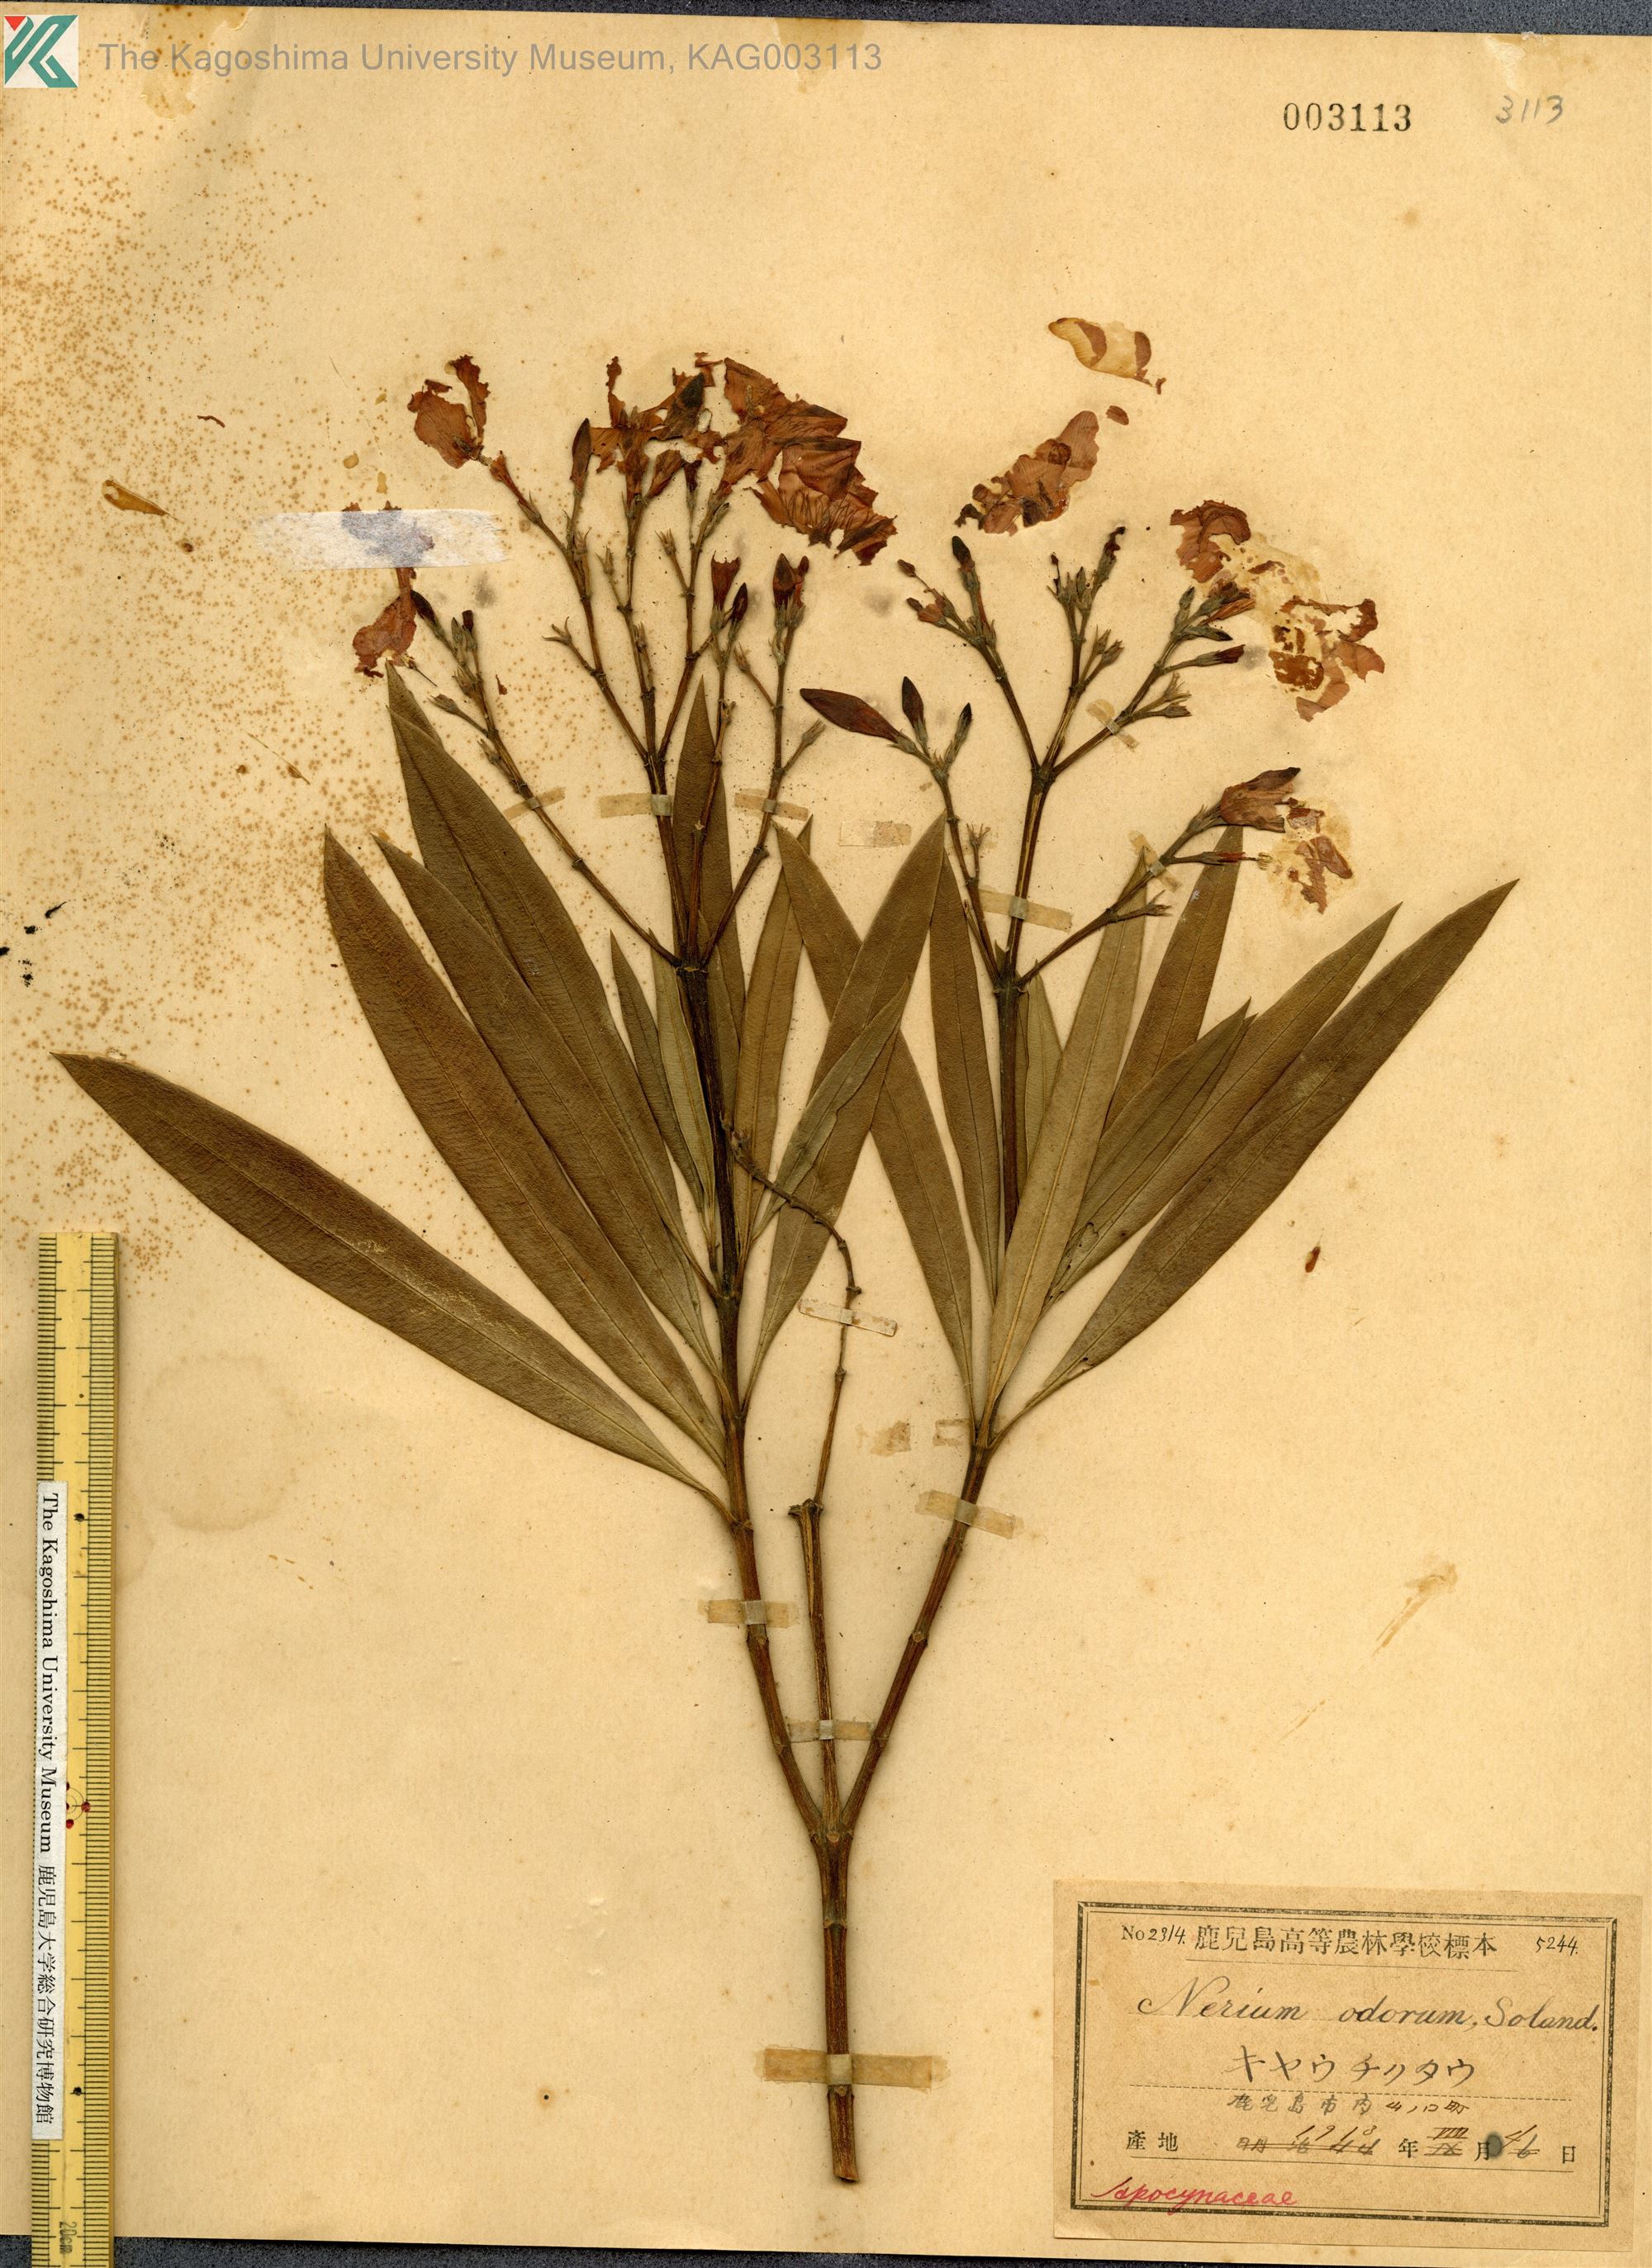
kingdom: Plantae
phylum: Tracheophyta
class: Magnoliopsida
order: Gentianales
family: Apocynaceae
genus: Nerium
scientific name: Nerium oleander
